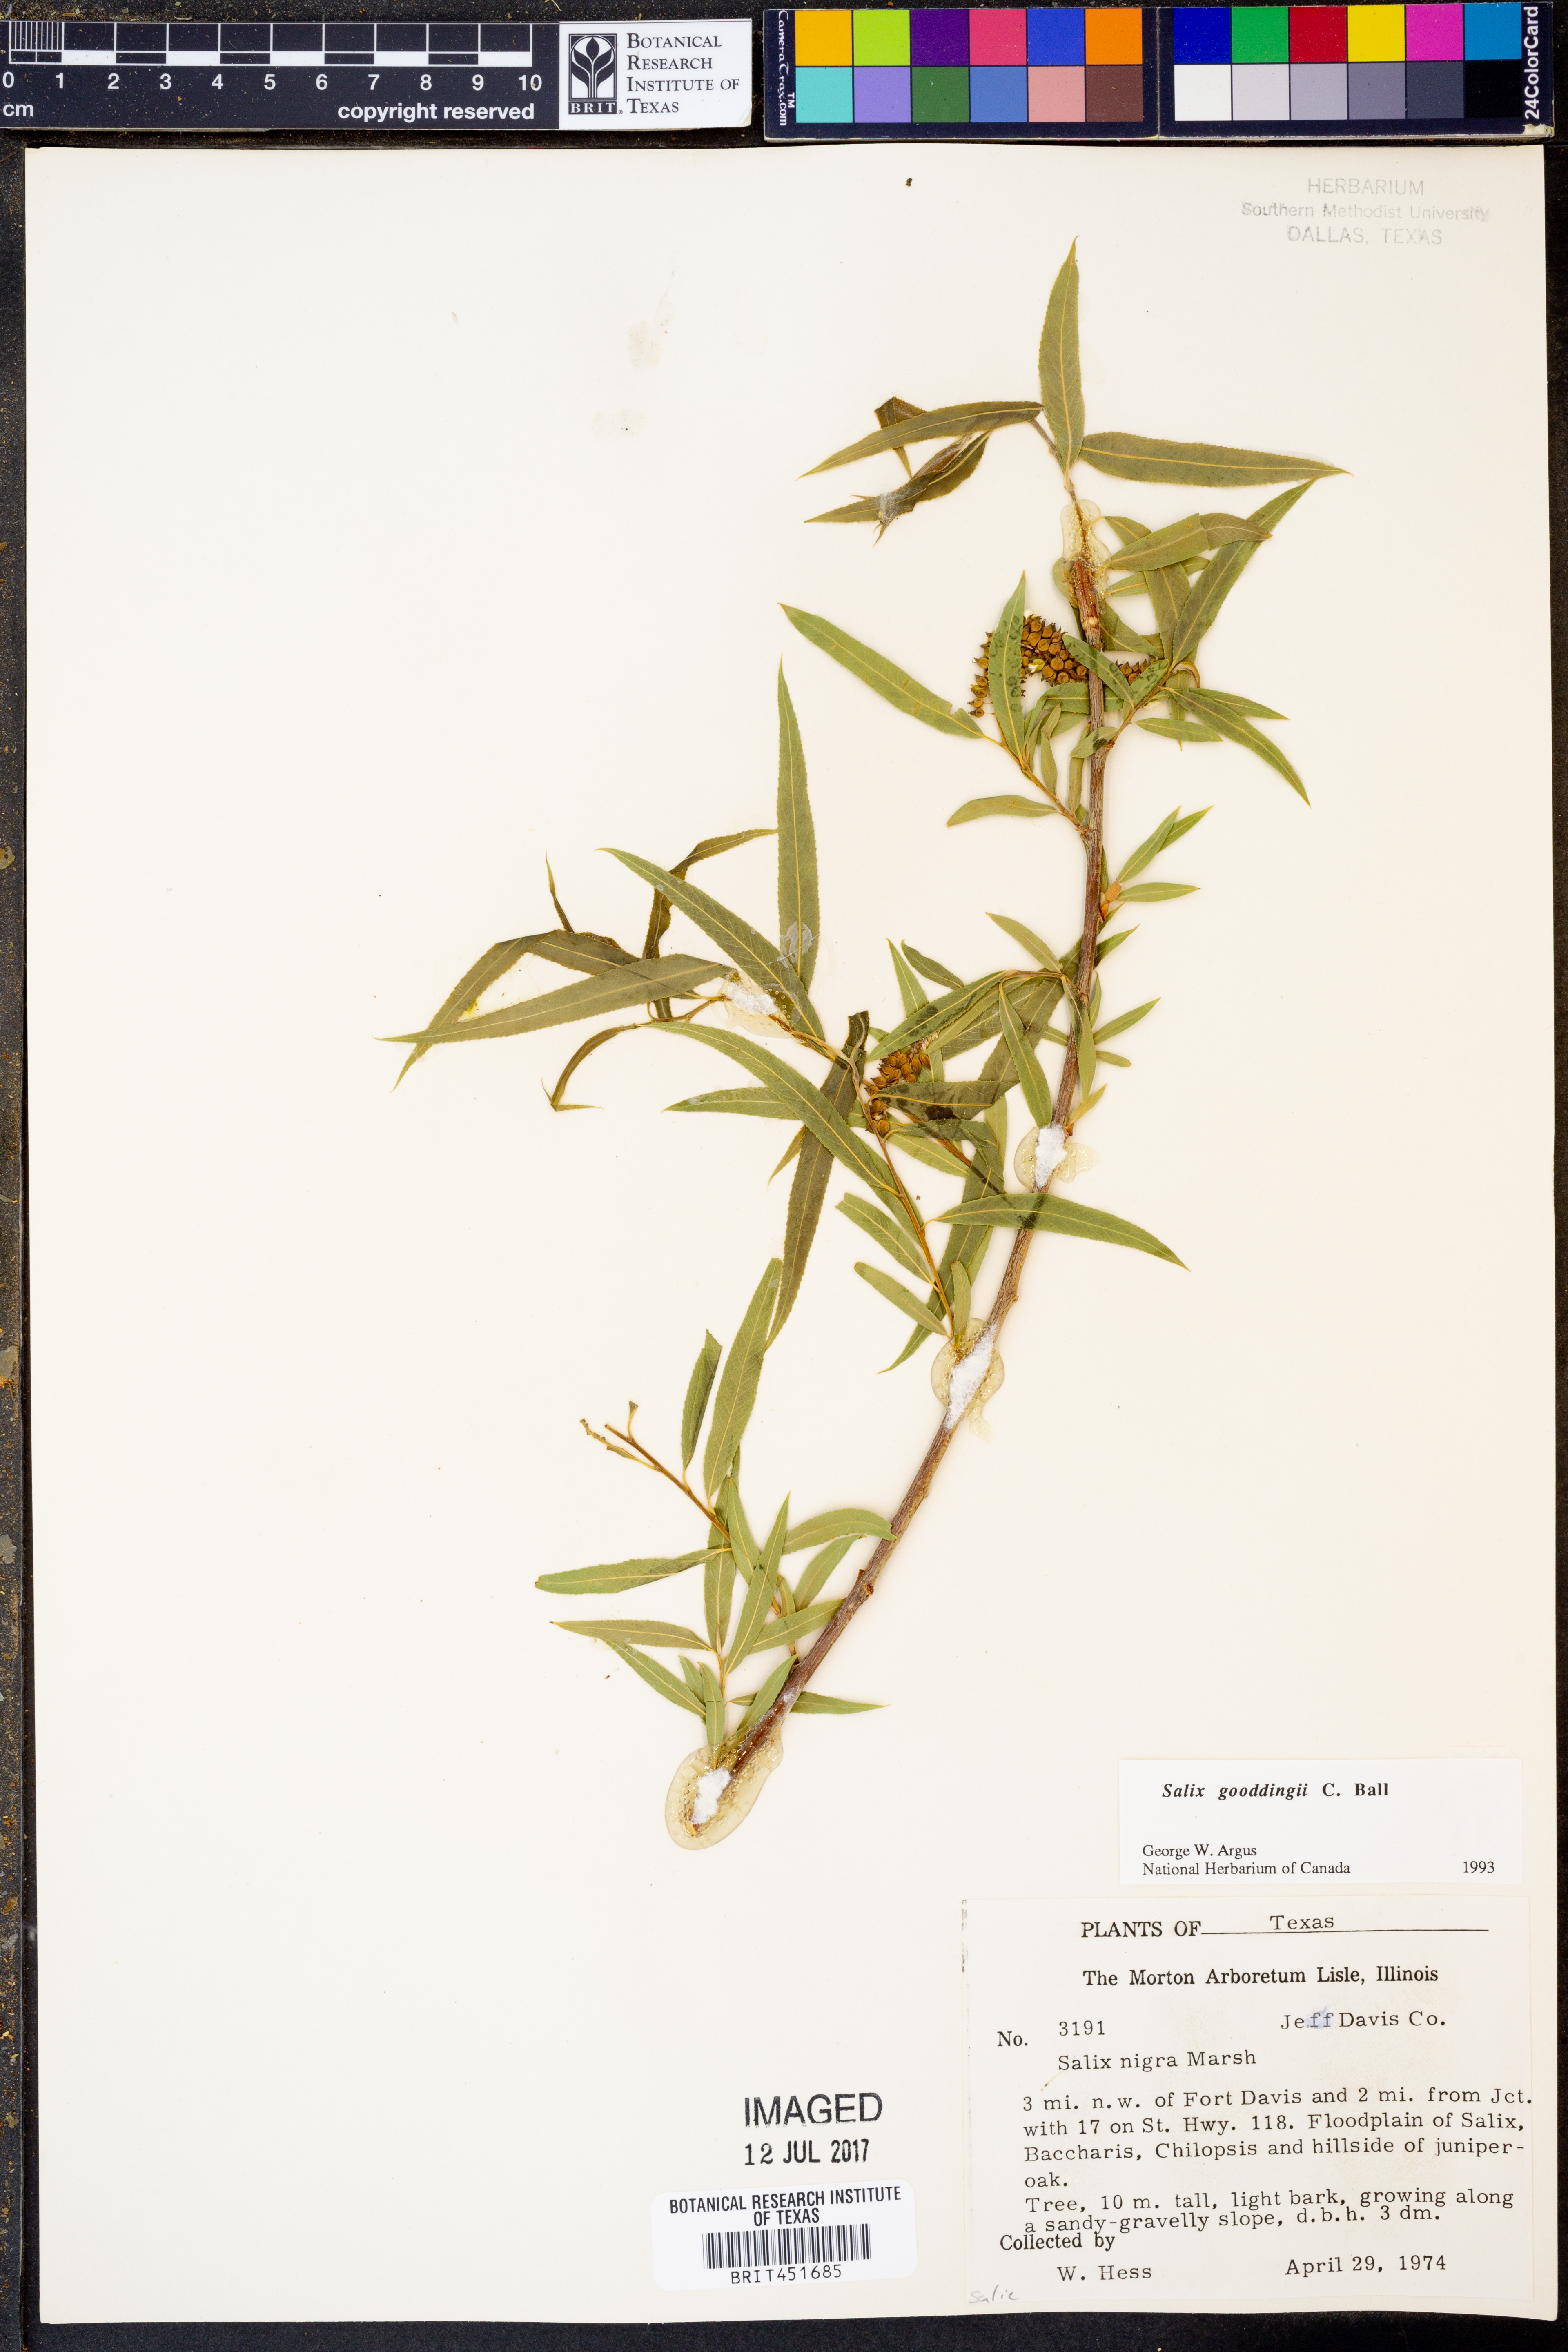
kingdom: Plantae
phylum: Tracheophyta
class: Magnoliopsida
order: Malpighiales
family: Salicaceae
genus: Salix
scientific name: Salix gooddingii
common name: Goodding's willow
